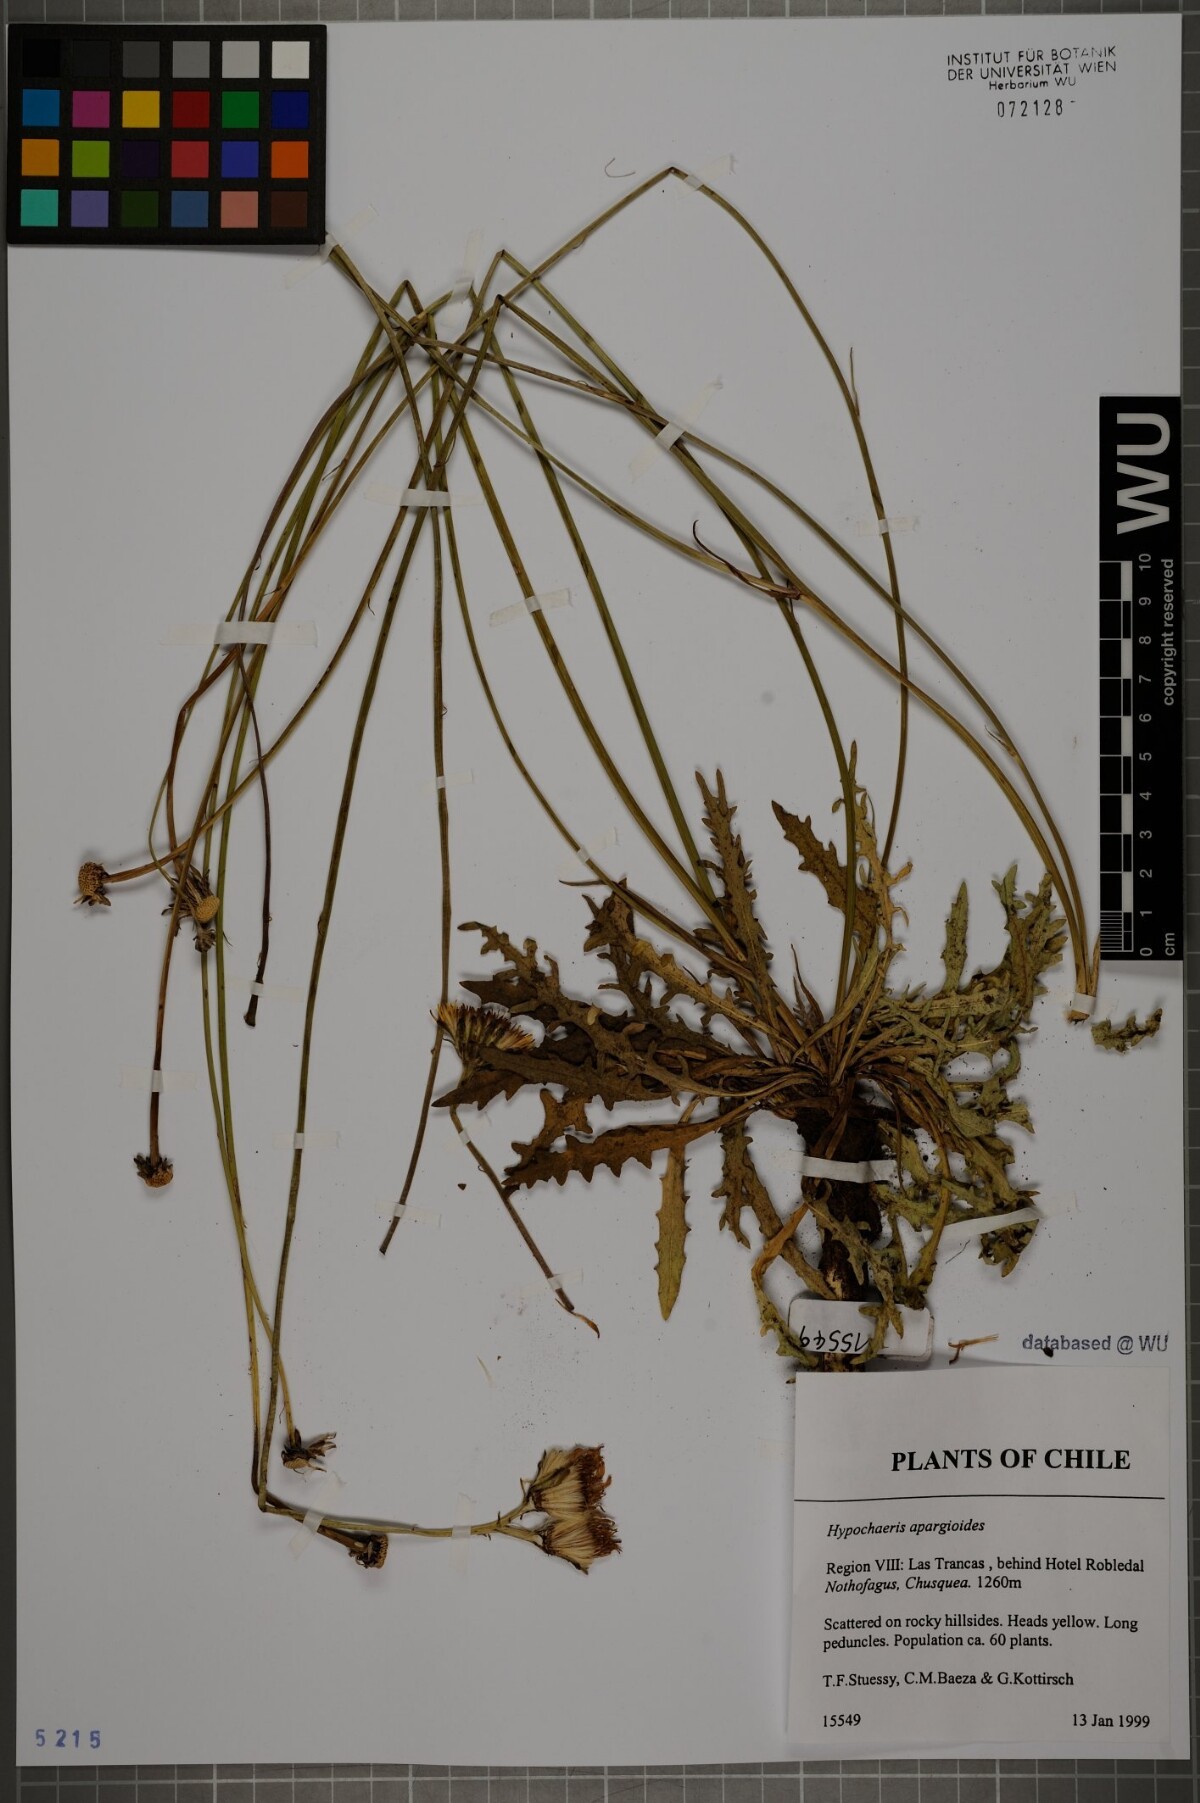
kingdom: Plantae
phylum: Tracheophyta
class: Magnoliopsida
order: Asterales
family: Asteraceae
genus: Hypochaeris
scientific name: Hypochaeris apargioides
